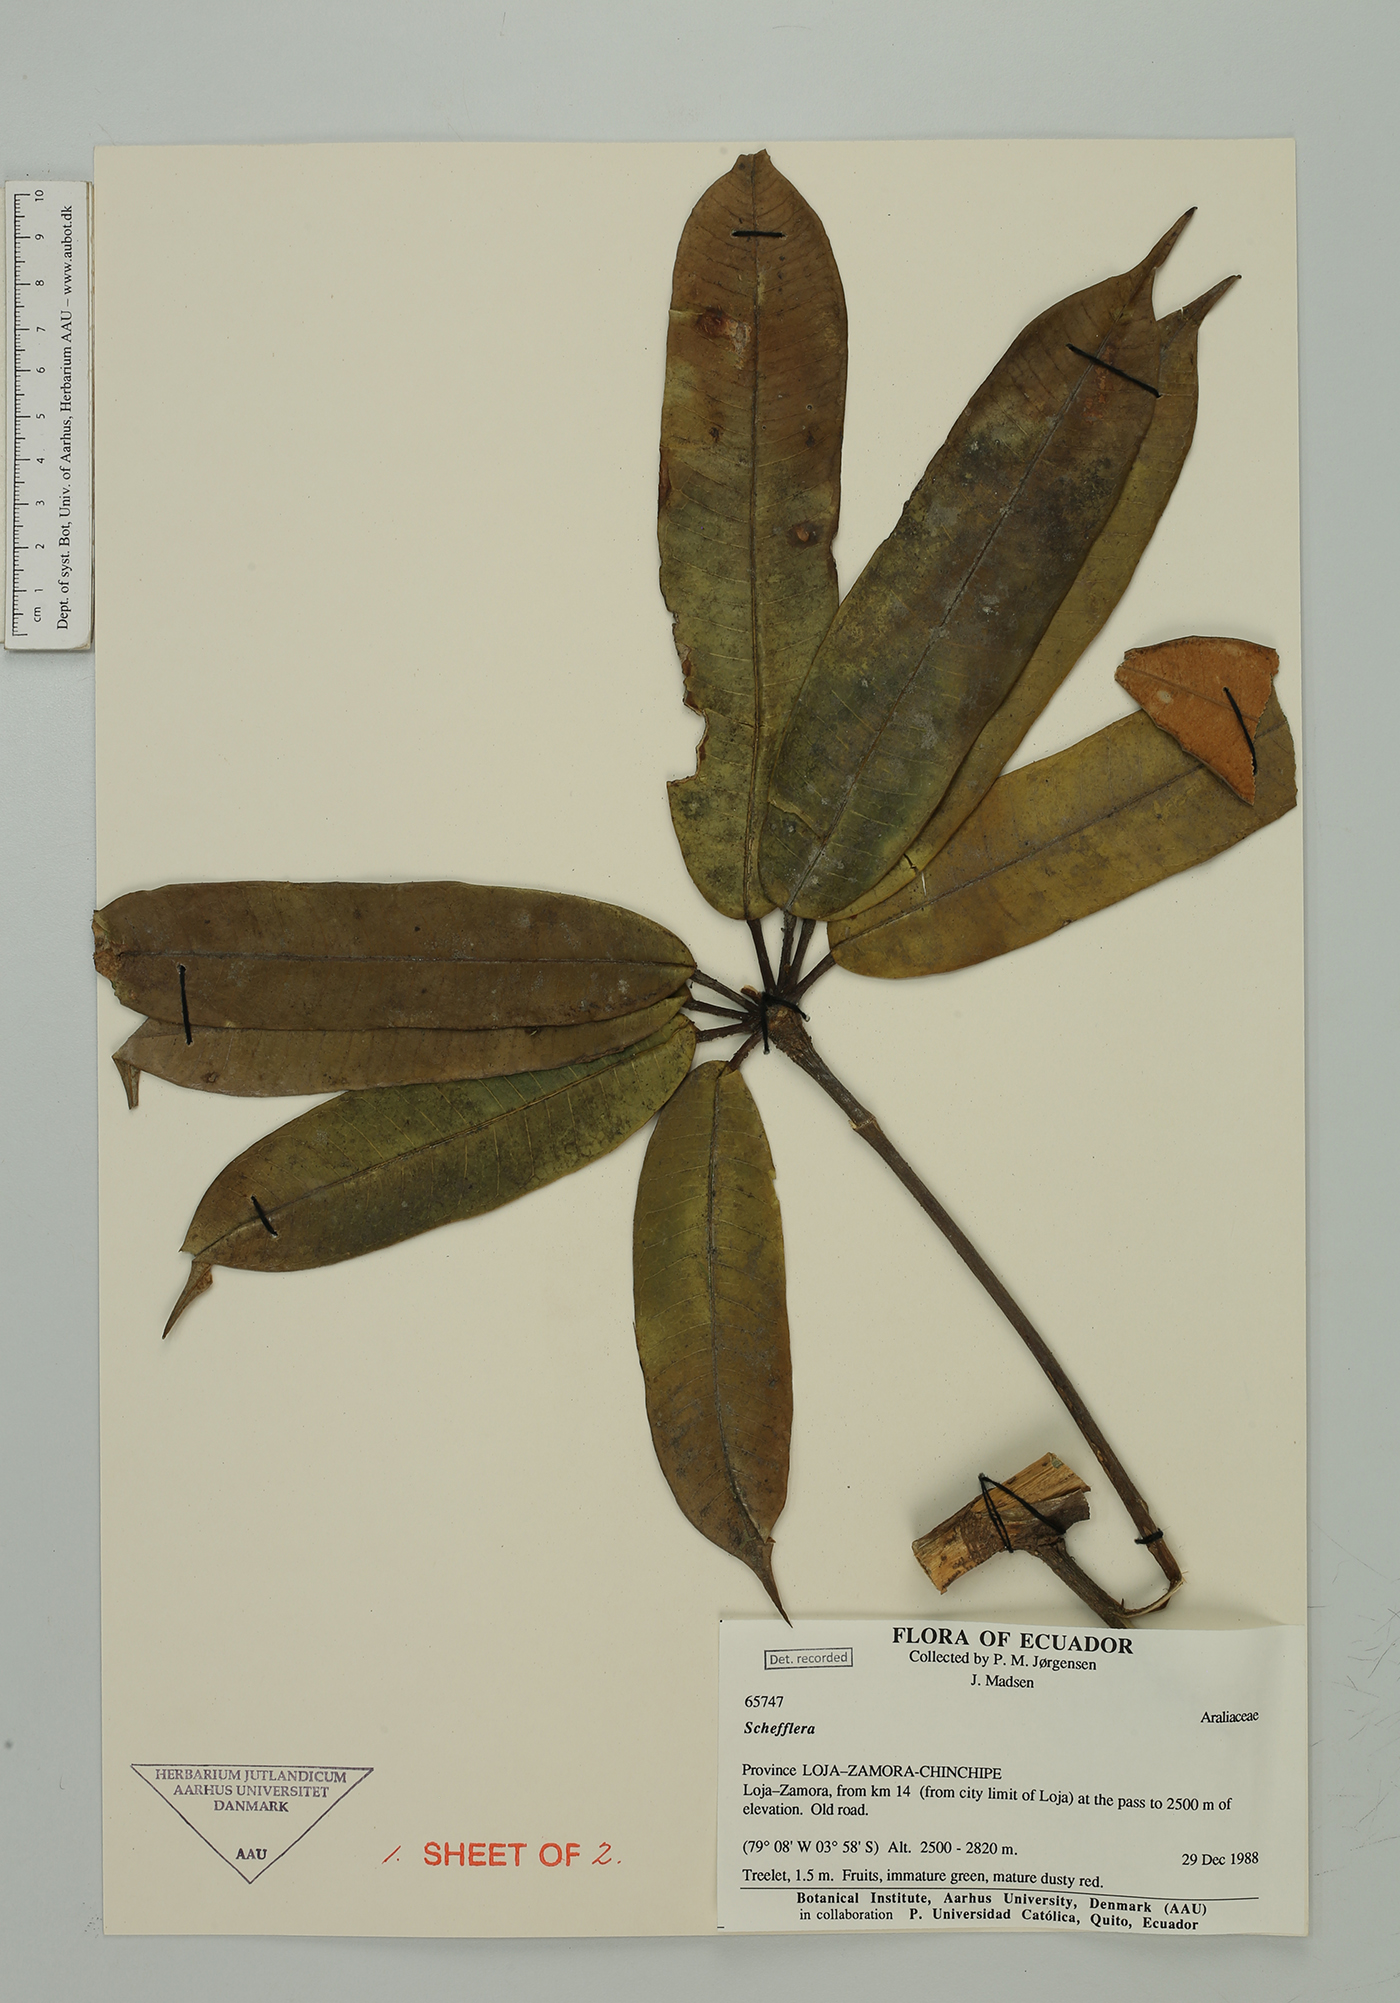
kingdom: Plantae
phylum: Tracheophyta
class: Magnoliopsida
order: Apiales
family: Araliaceae
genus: Sciodaphyllum
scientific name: Sciodaphyllum
